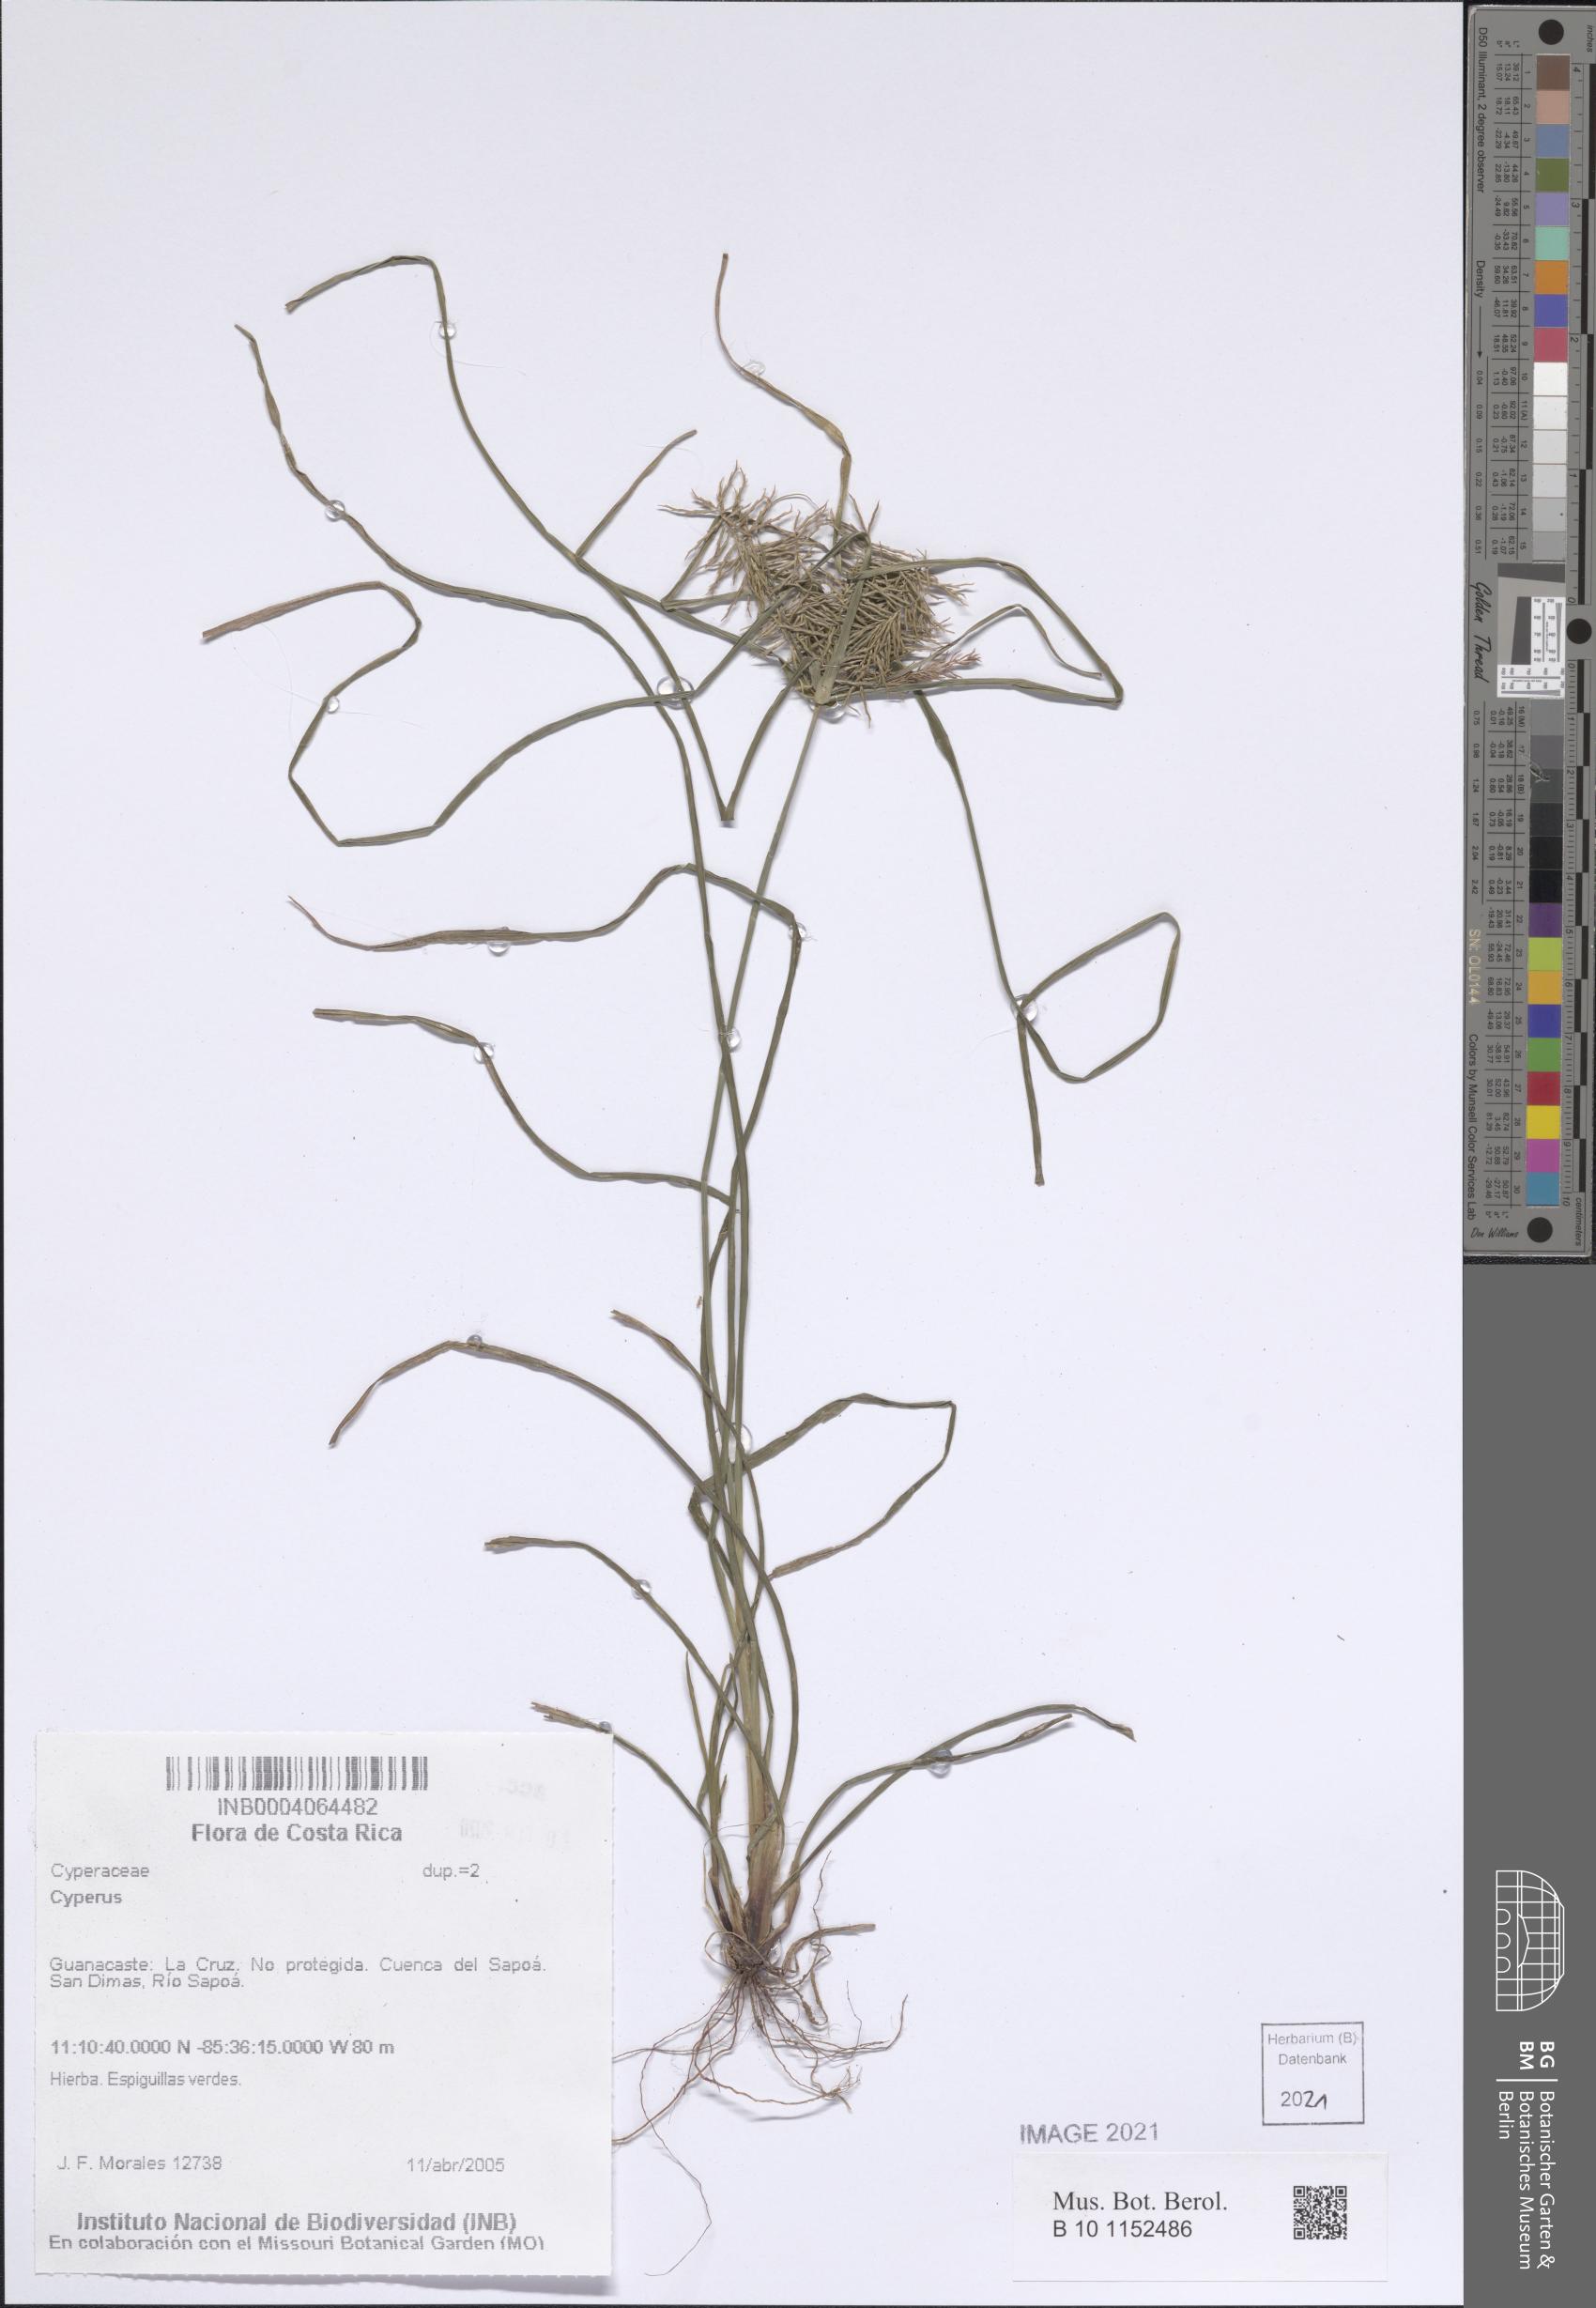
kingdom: Plantae
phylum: Tracheophyta
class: Liliopsida
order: Poales
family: Cyperaceae
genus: Cyperus
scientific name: Cyperus
